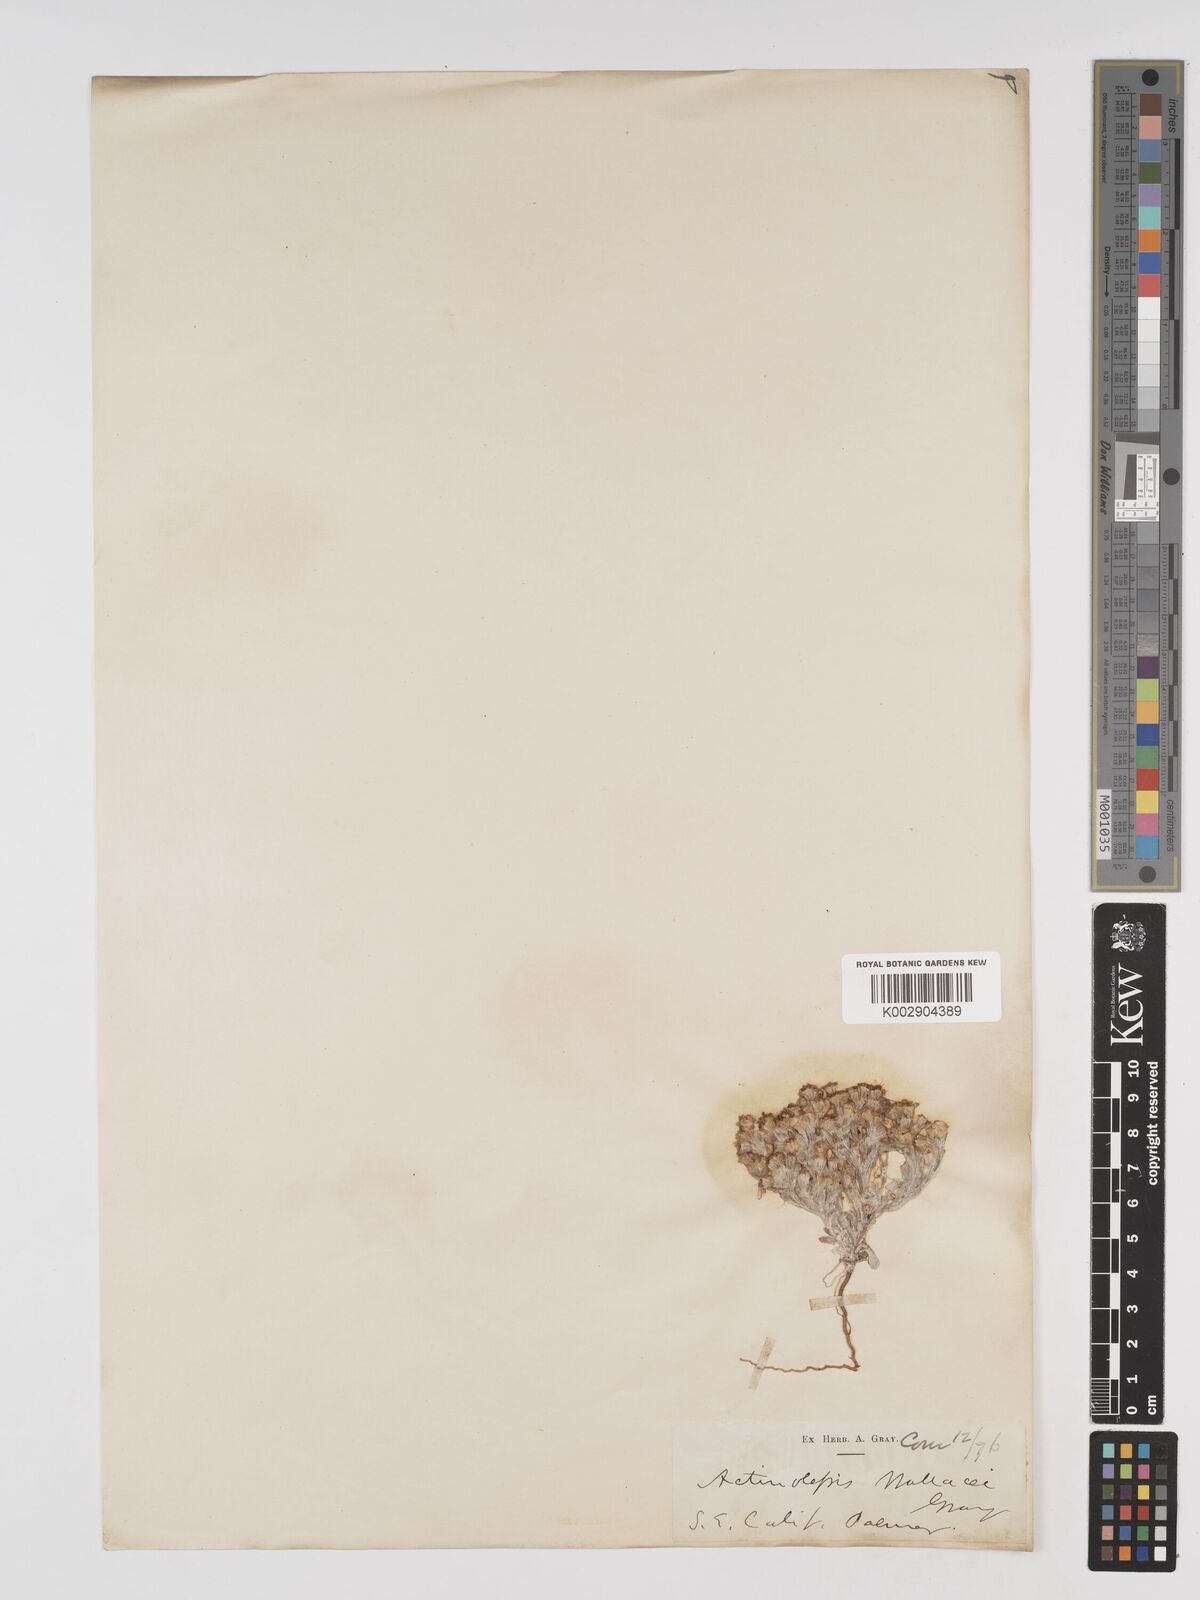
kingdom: Plantae
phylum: Tracheophyta
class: Magnoliopsida
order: Asterales
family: Asteraceae
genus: Eriophyllum
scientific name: Eriophyllum wallacei
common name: Wallace's woolly daisy
